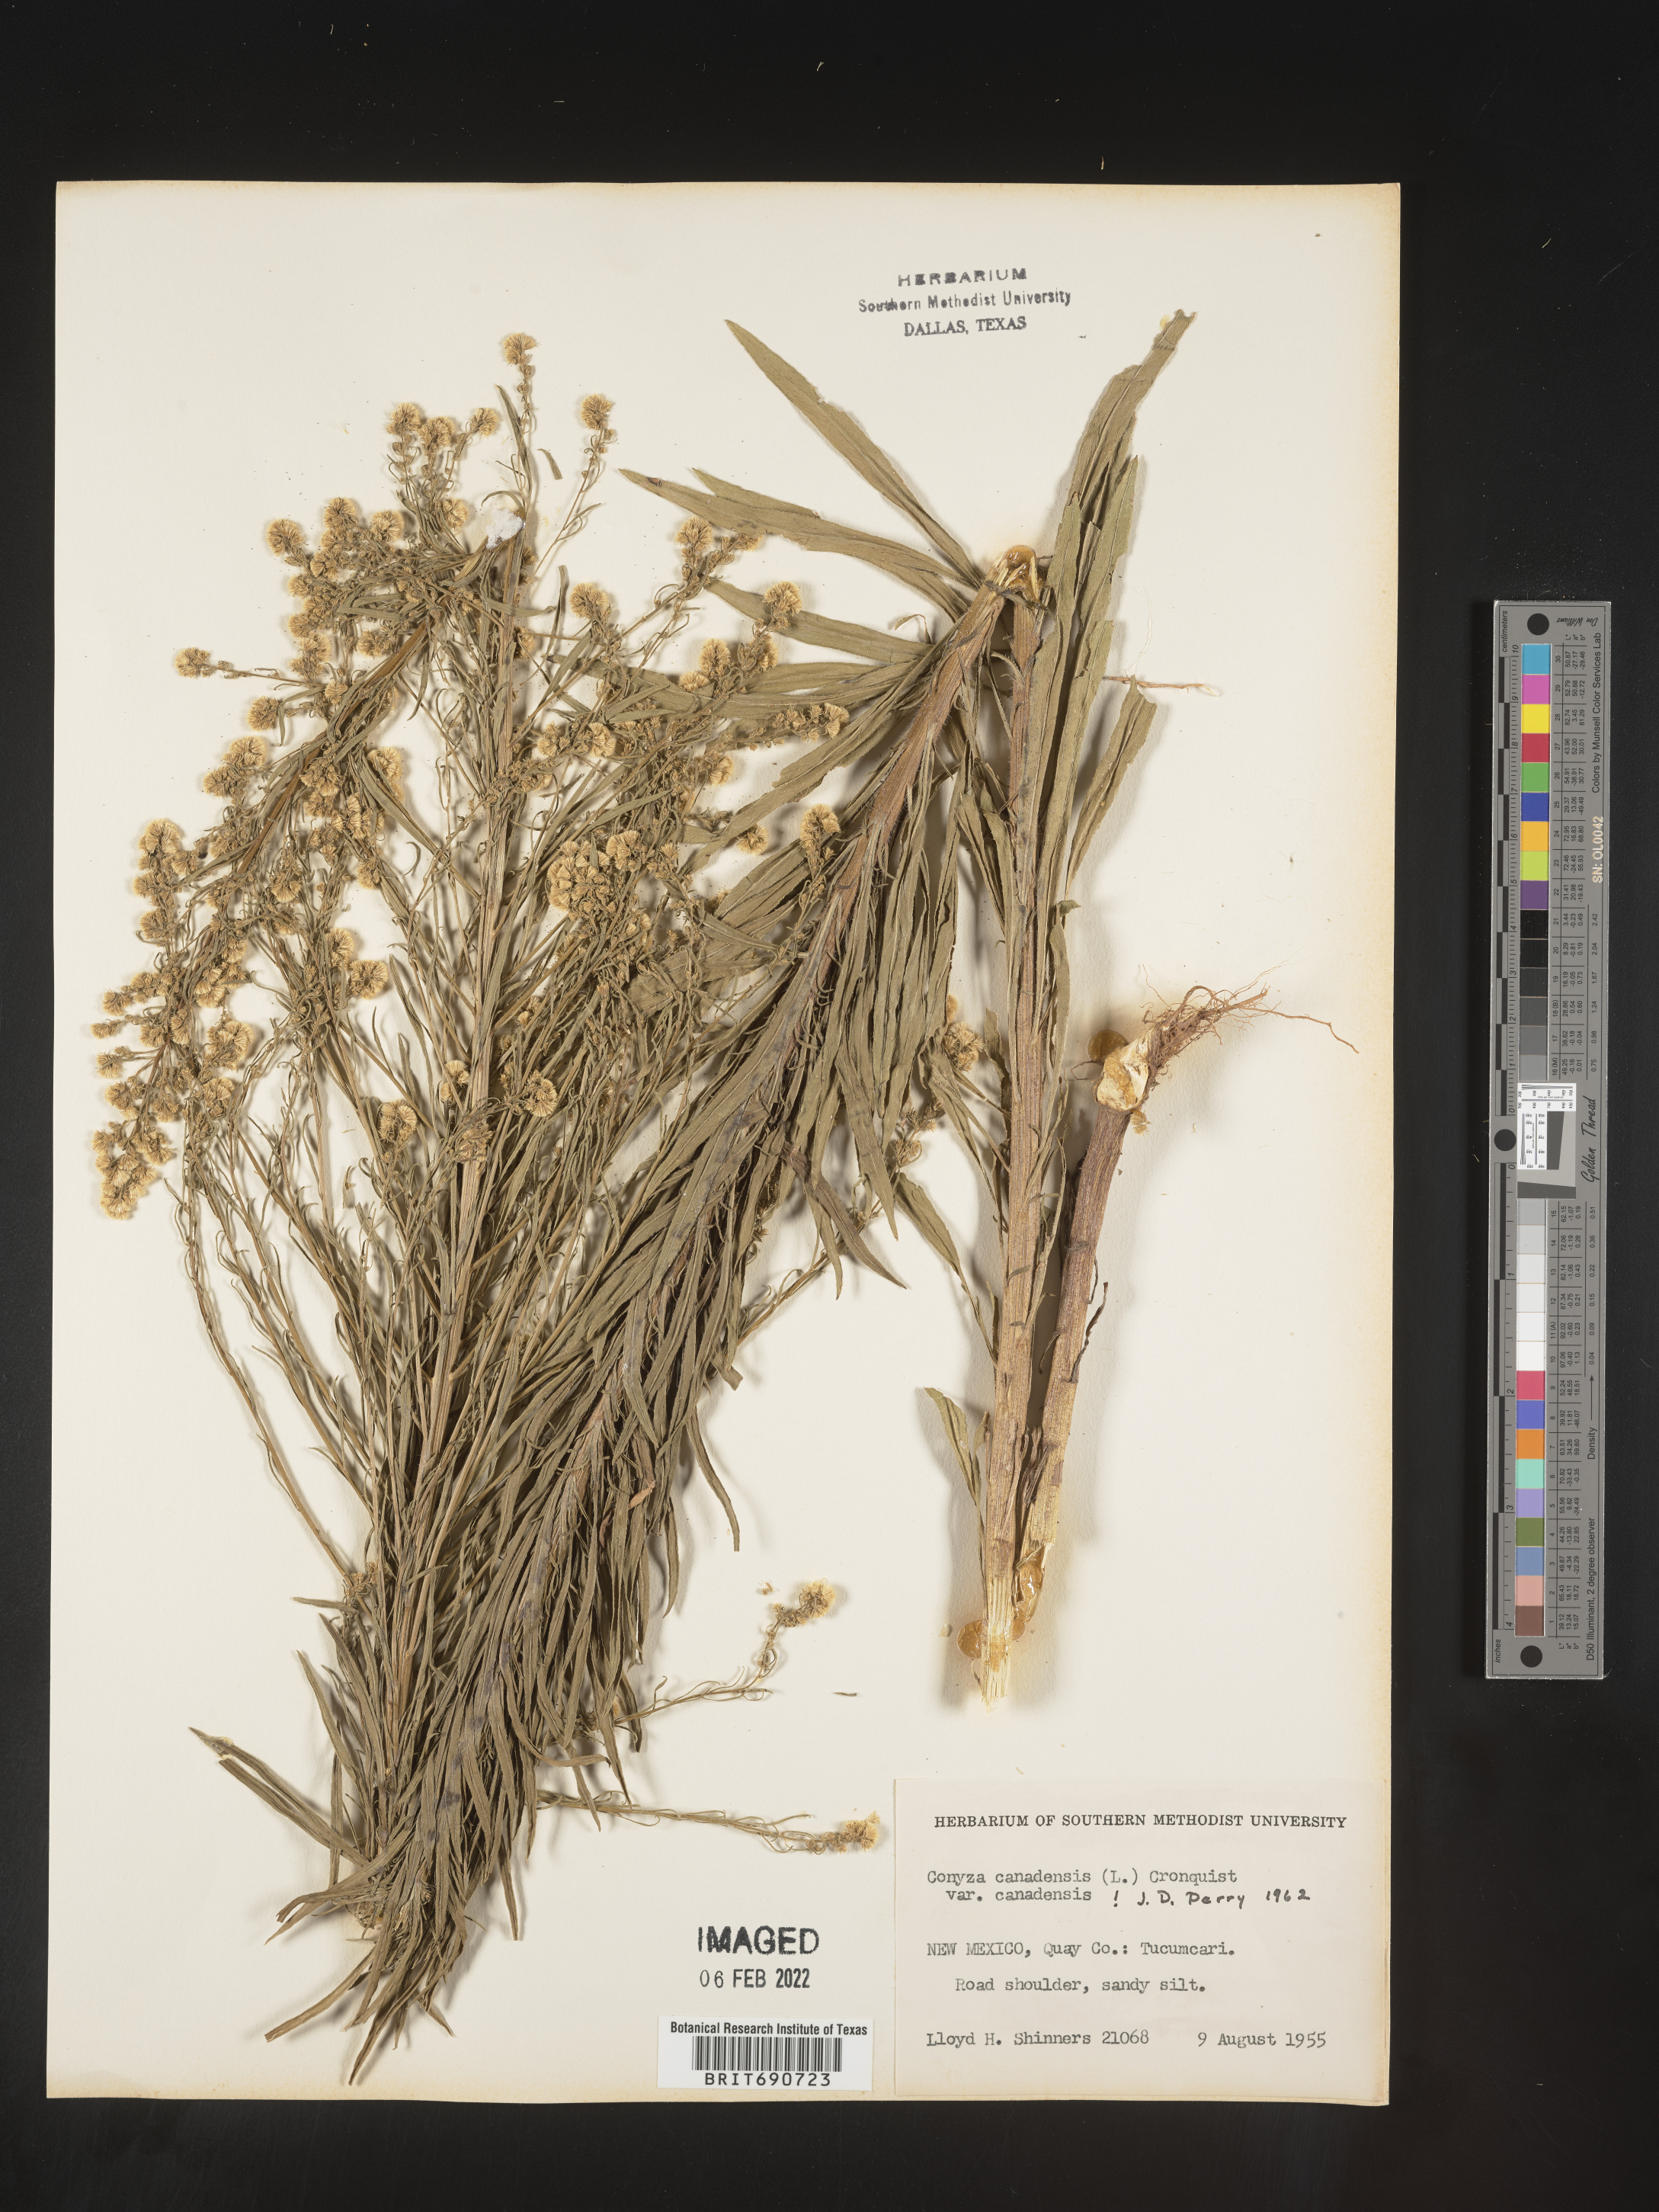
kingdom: Plantae
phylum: Tracheophyta
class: Magnoliopsida
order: Asterales
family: Asteraceae
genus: Erigeron
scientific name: Erigeron canadensis
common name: Canadian fleabane
